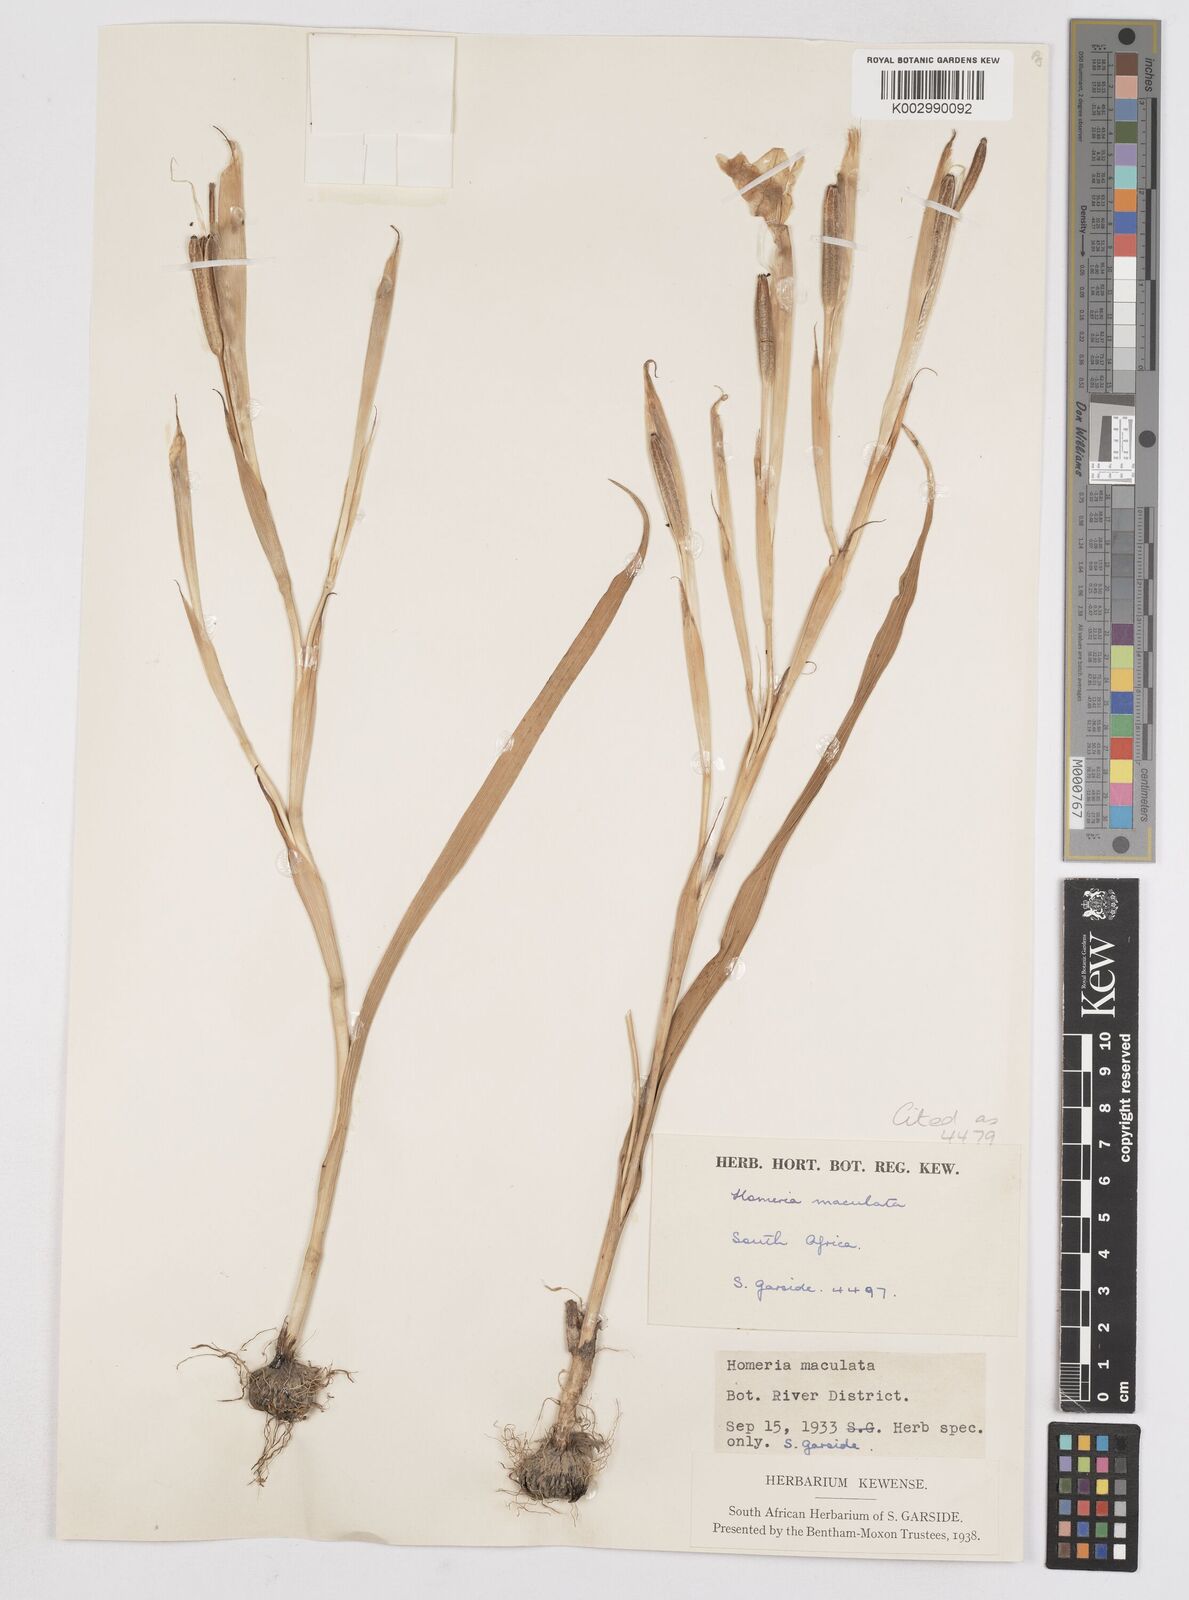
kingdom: Plantae
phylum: Tracheophyta
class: Liliopsida
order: Asparagales
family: Iridaceae
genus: Moraea
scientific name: Moraea comptonii
